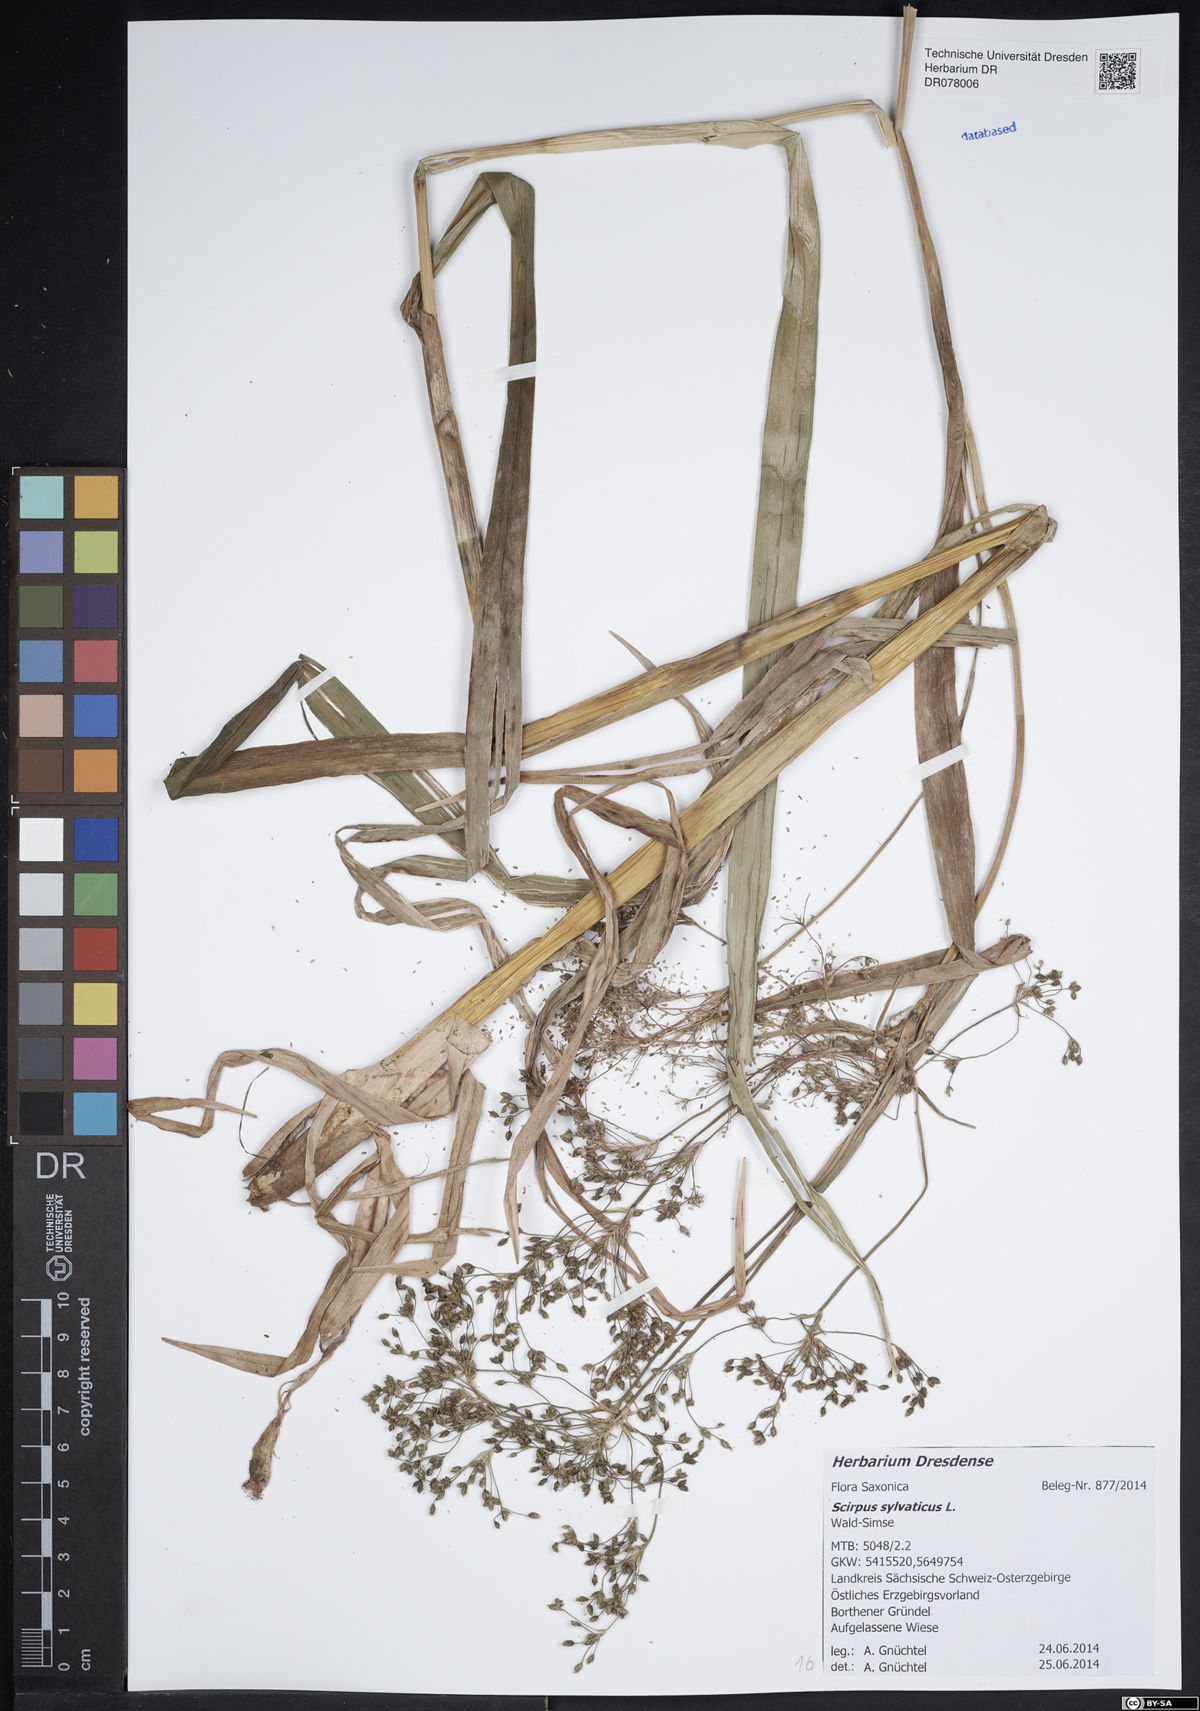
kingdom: Plantae
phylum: Tracheophyta
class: Liliopsida
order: Poales
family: Cyperaceae
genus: Scirpus
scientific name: Scirpus sylvaticus
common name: Wood club-rush
